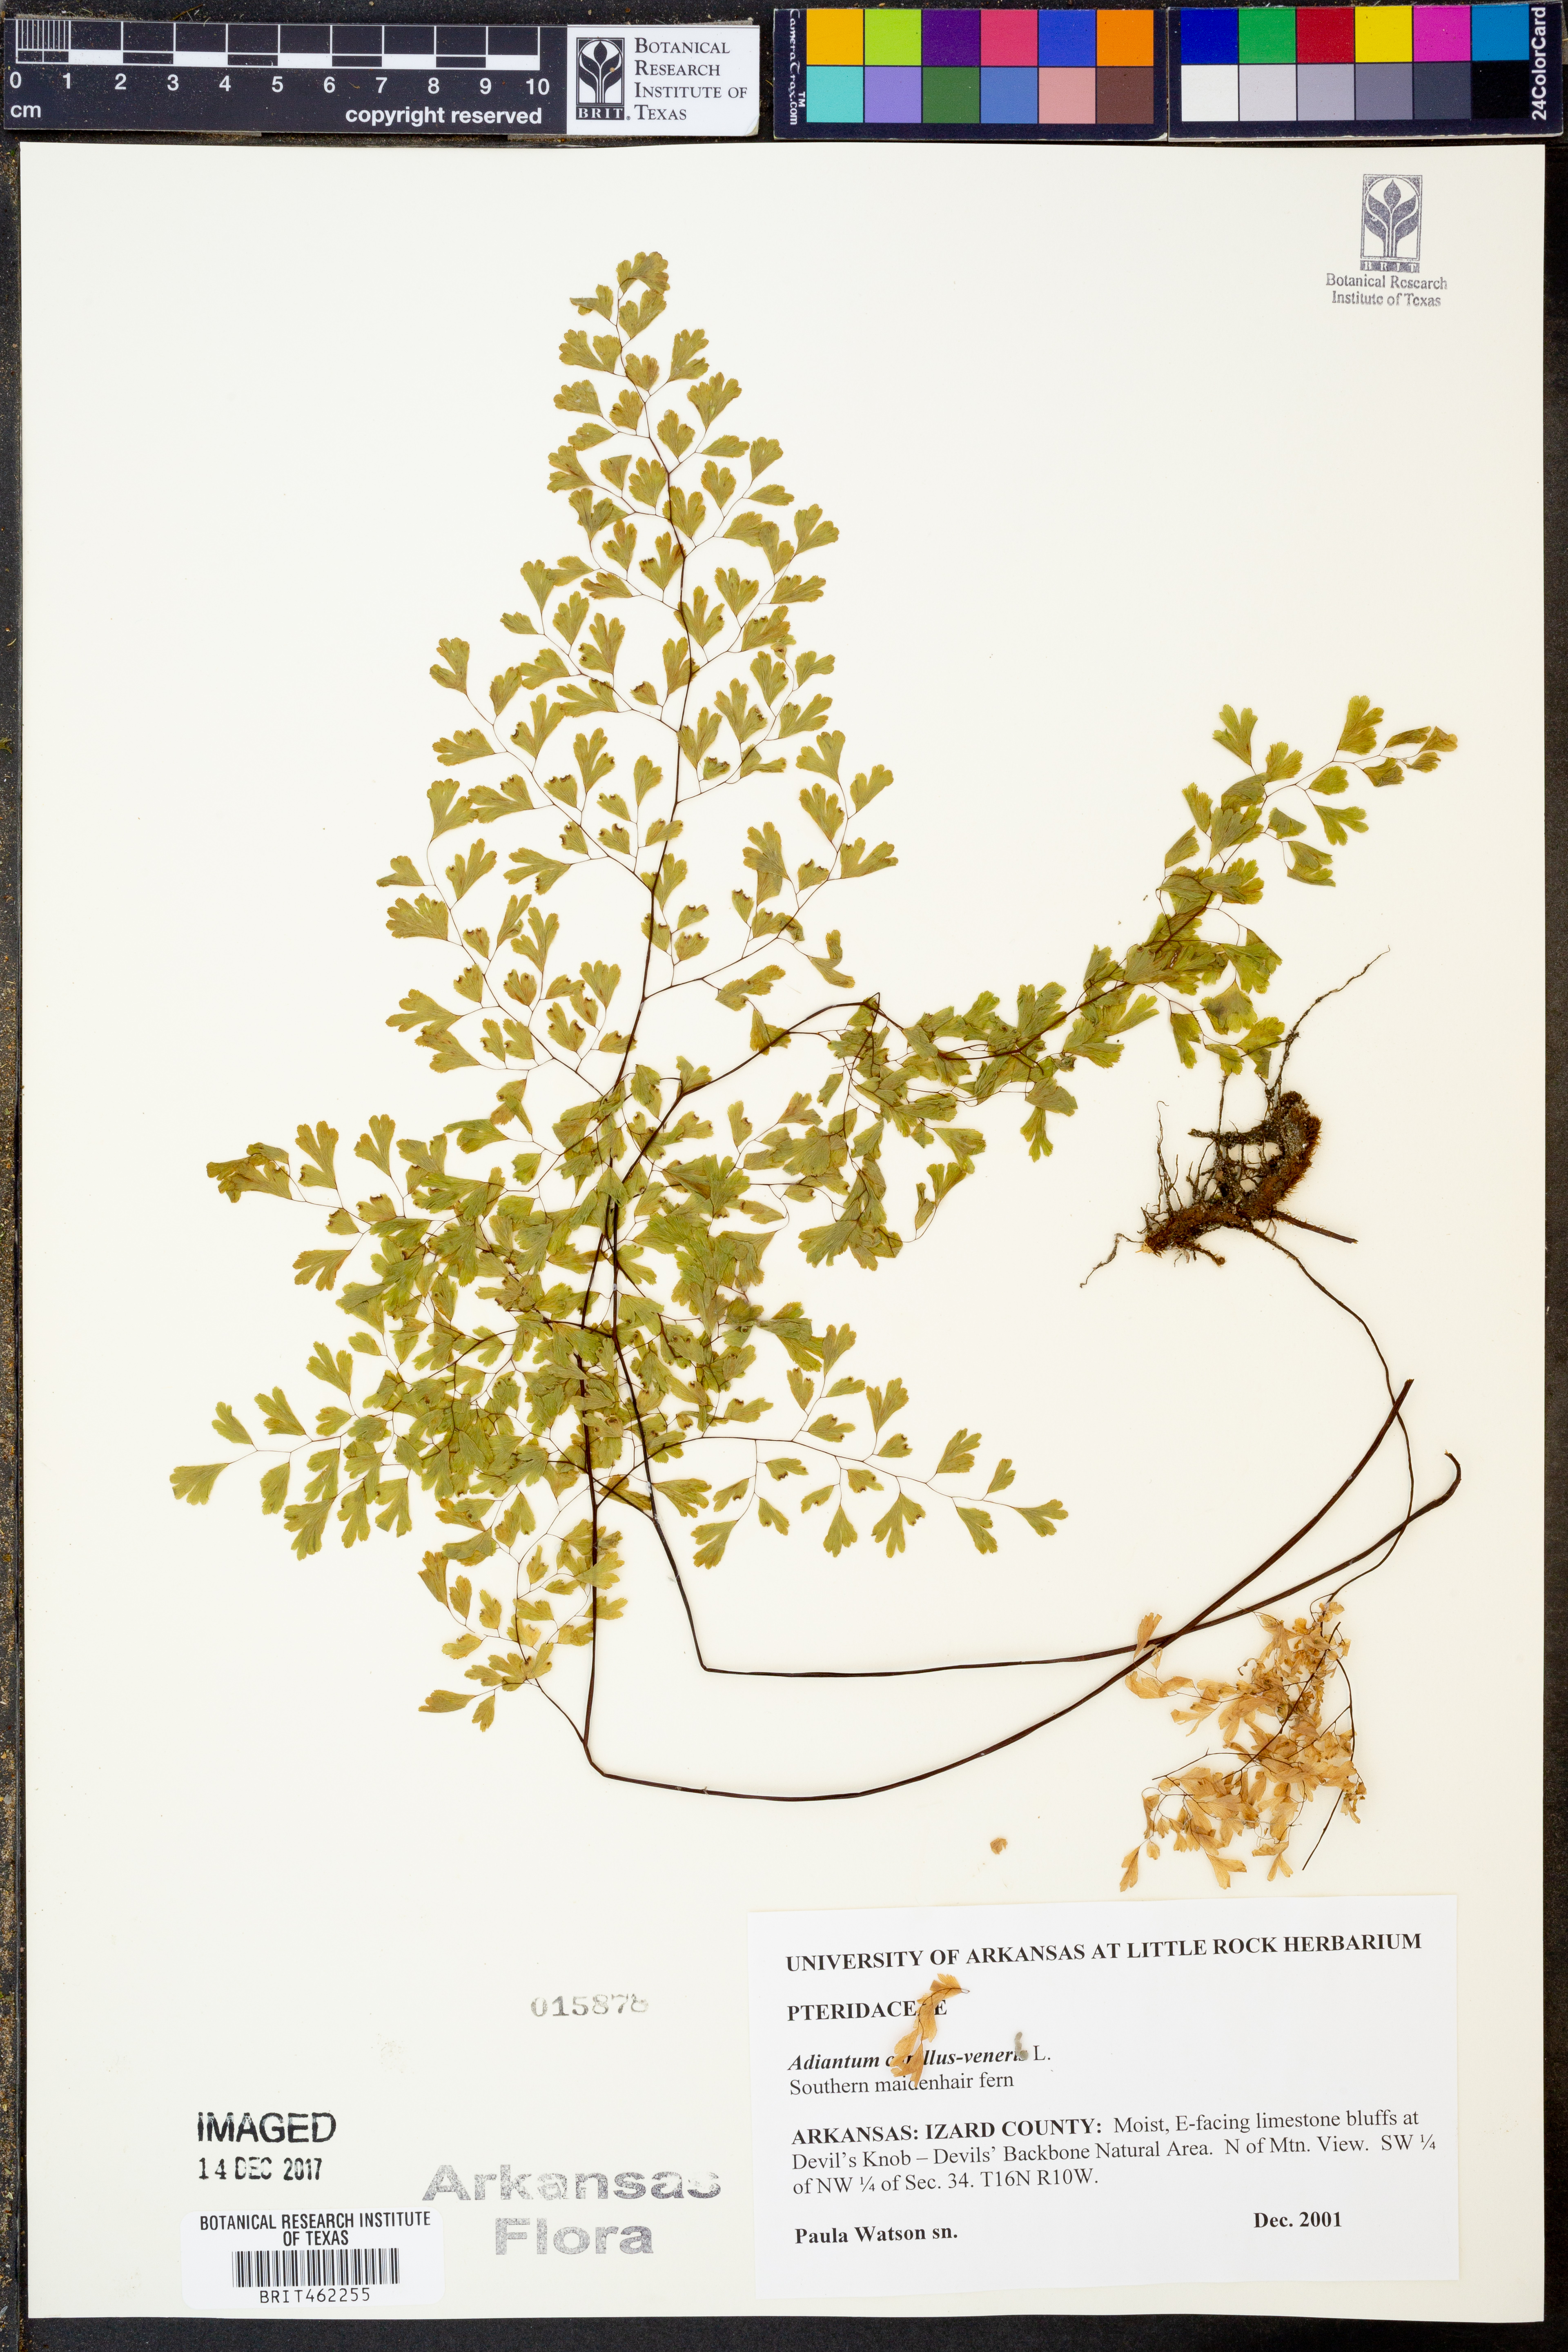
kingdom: Plantae
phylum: Tracheophyta
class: Polypodiopsida
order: Polypodiales
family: Pteridaceae
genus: Adiantum
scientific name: Adiantum capillus-veneris
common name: Maidenhair fern
